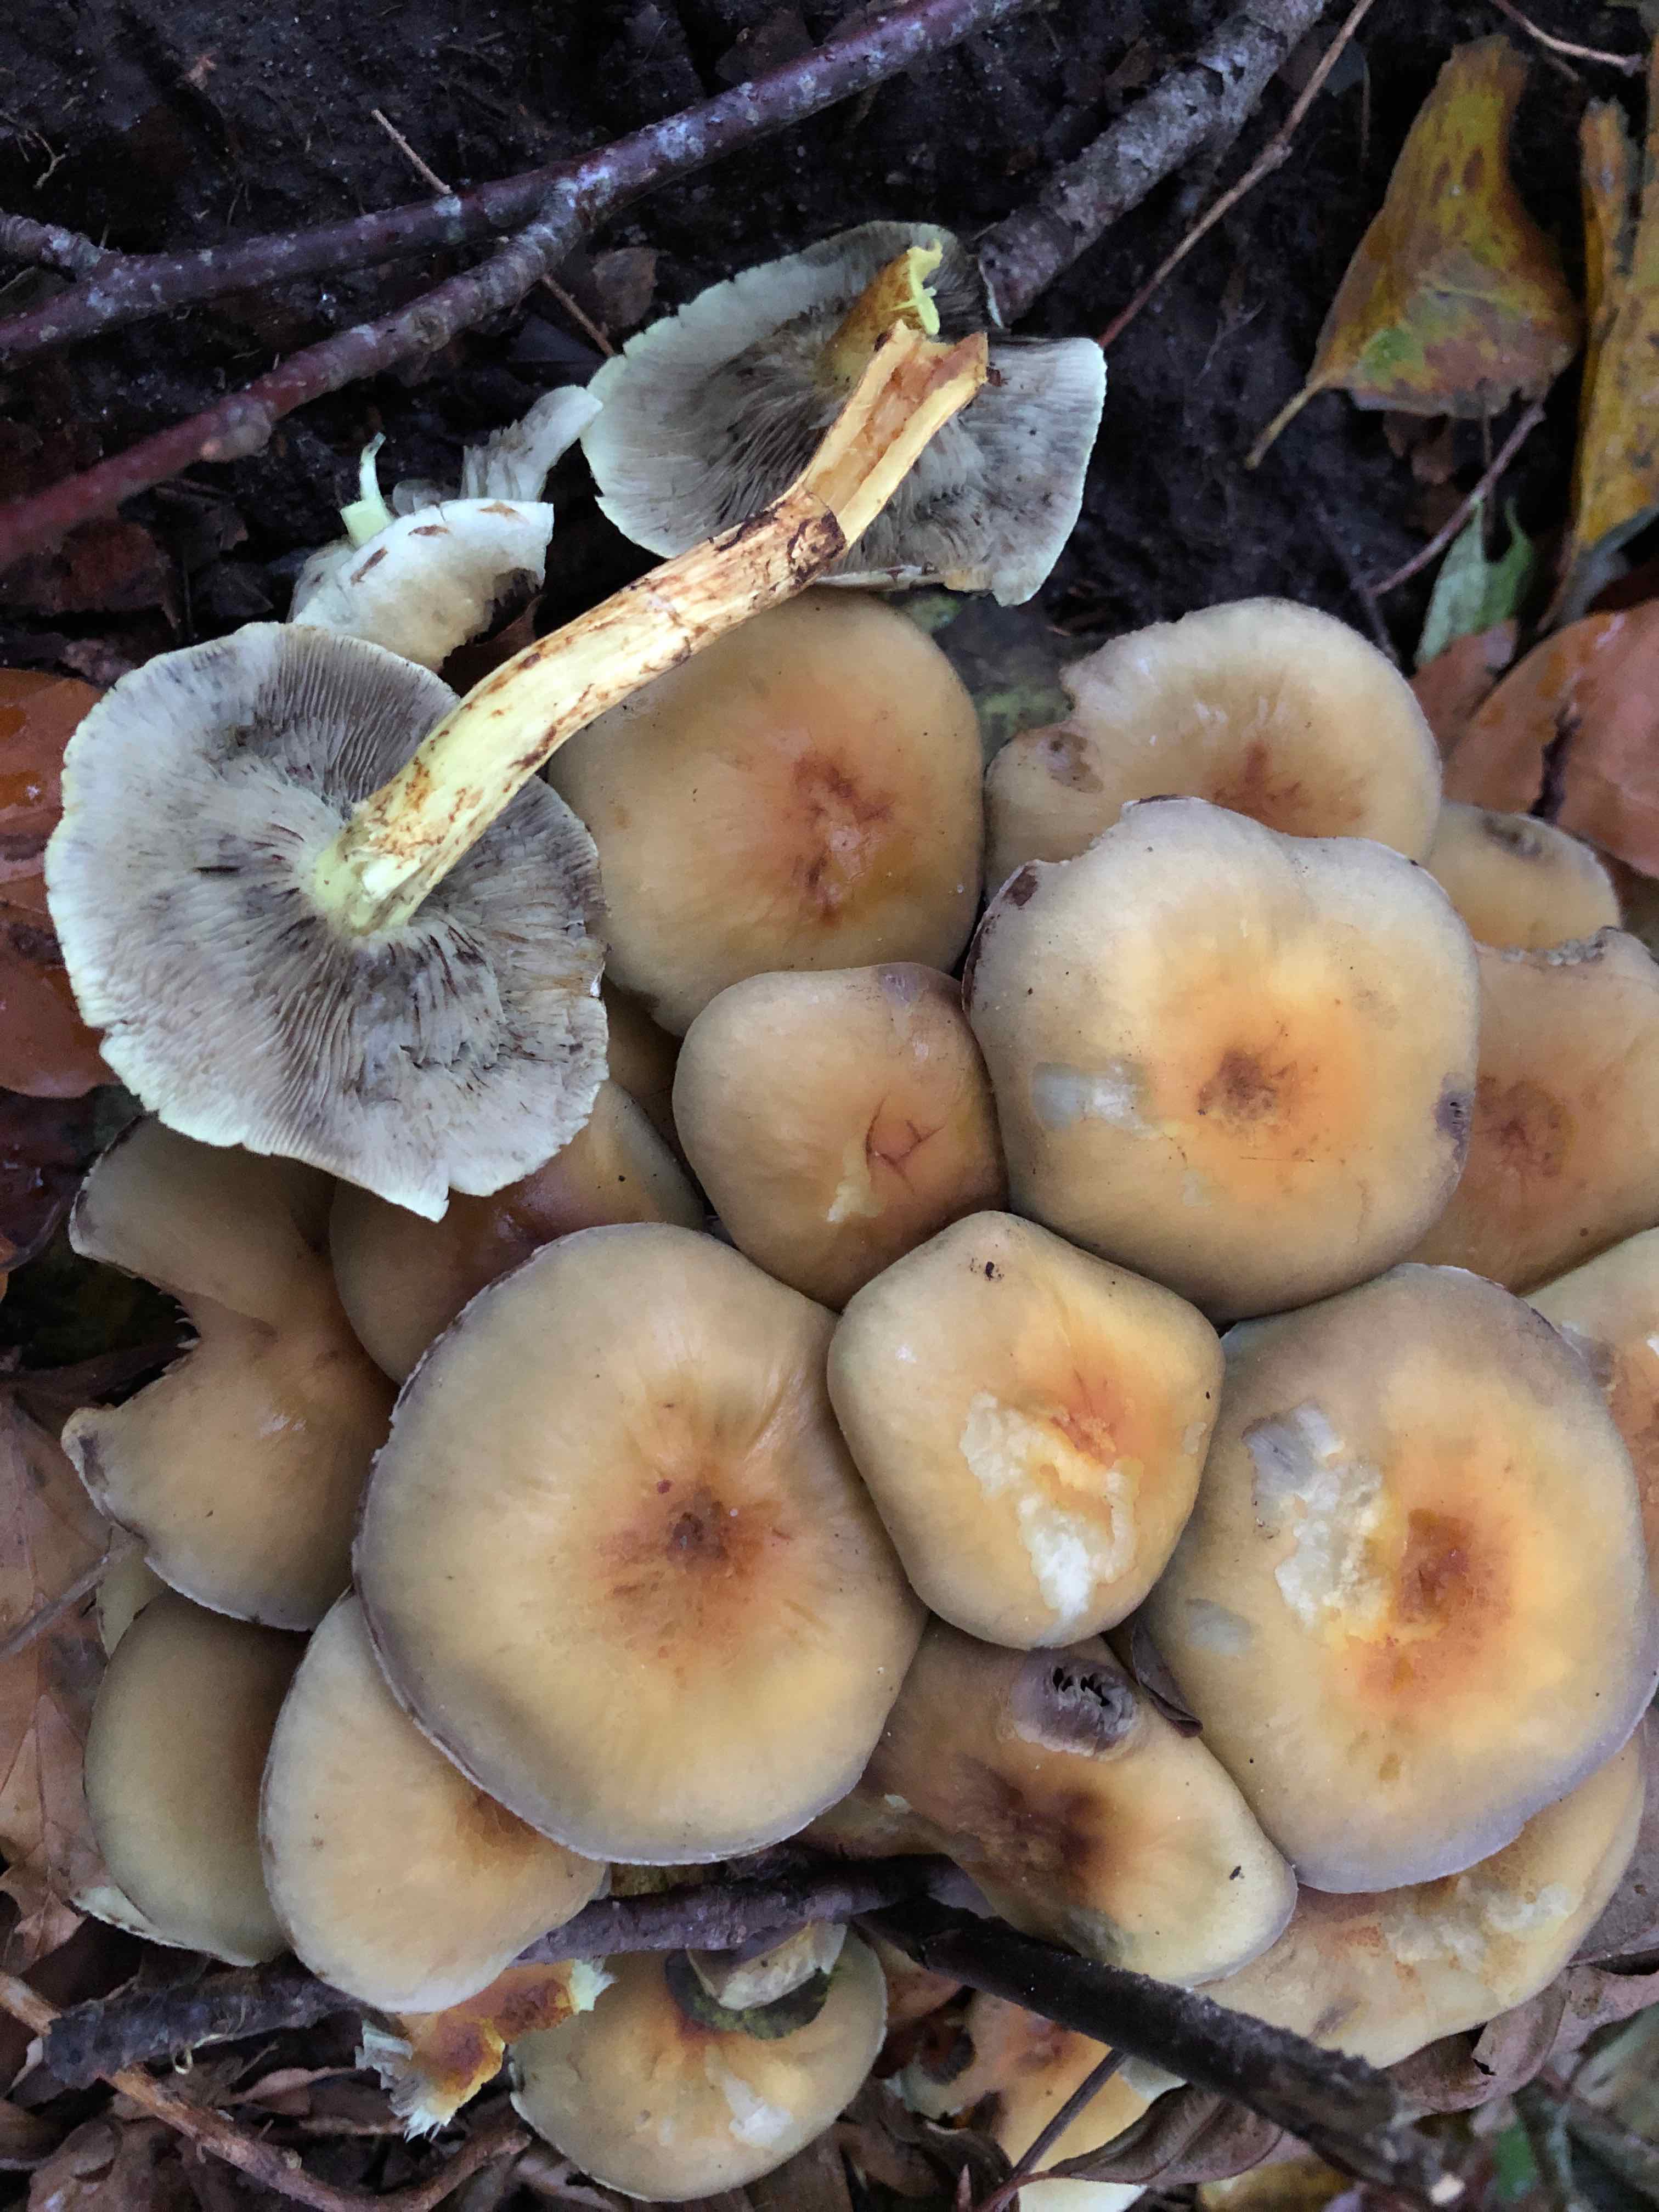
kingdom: Fungi
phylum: Basidiomycota
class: Agaricomycetes
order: Agaricales
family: Strophariaceae
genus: Hypholoma
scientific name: Hypholoma fasciculare
